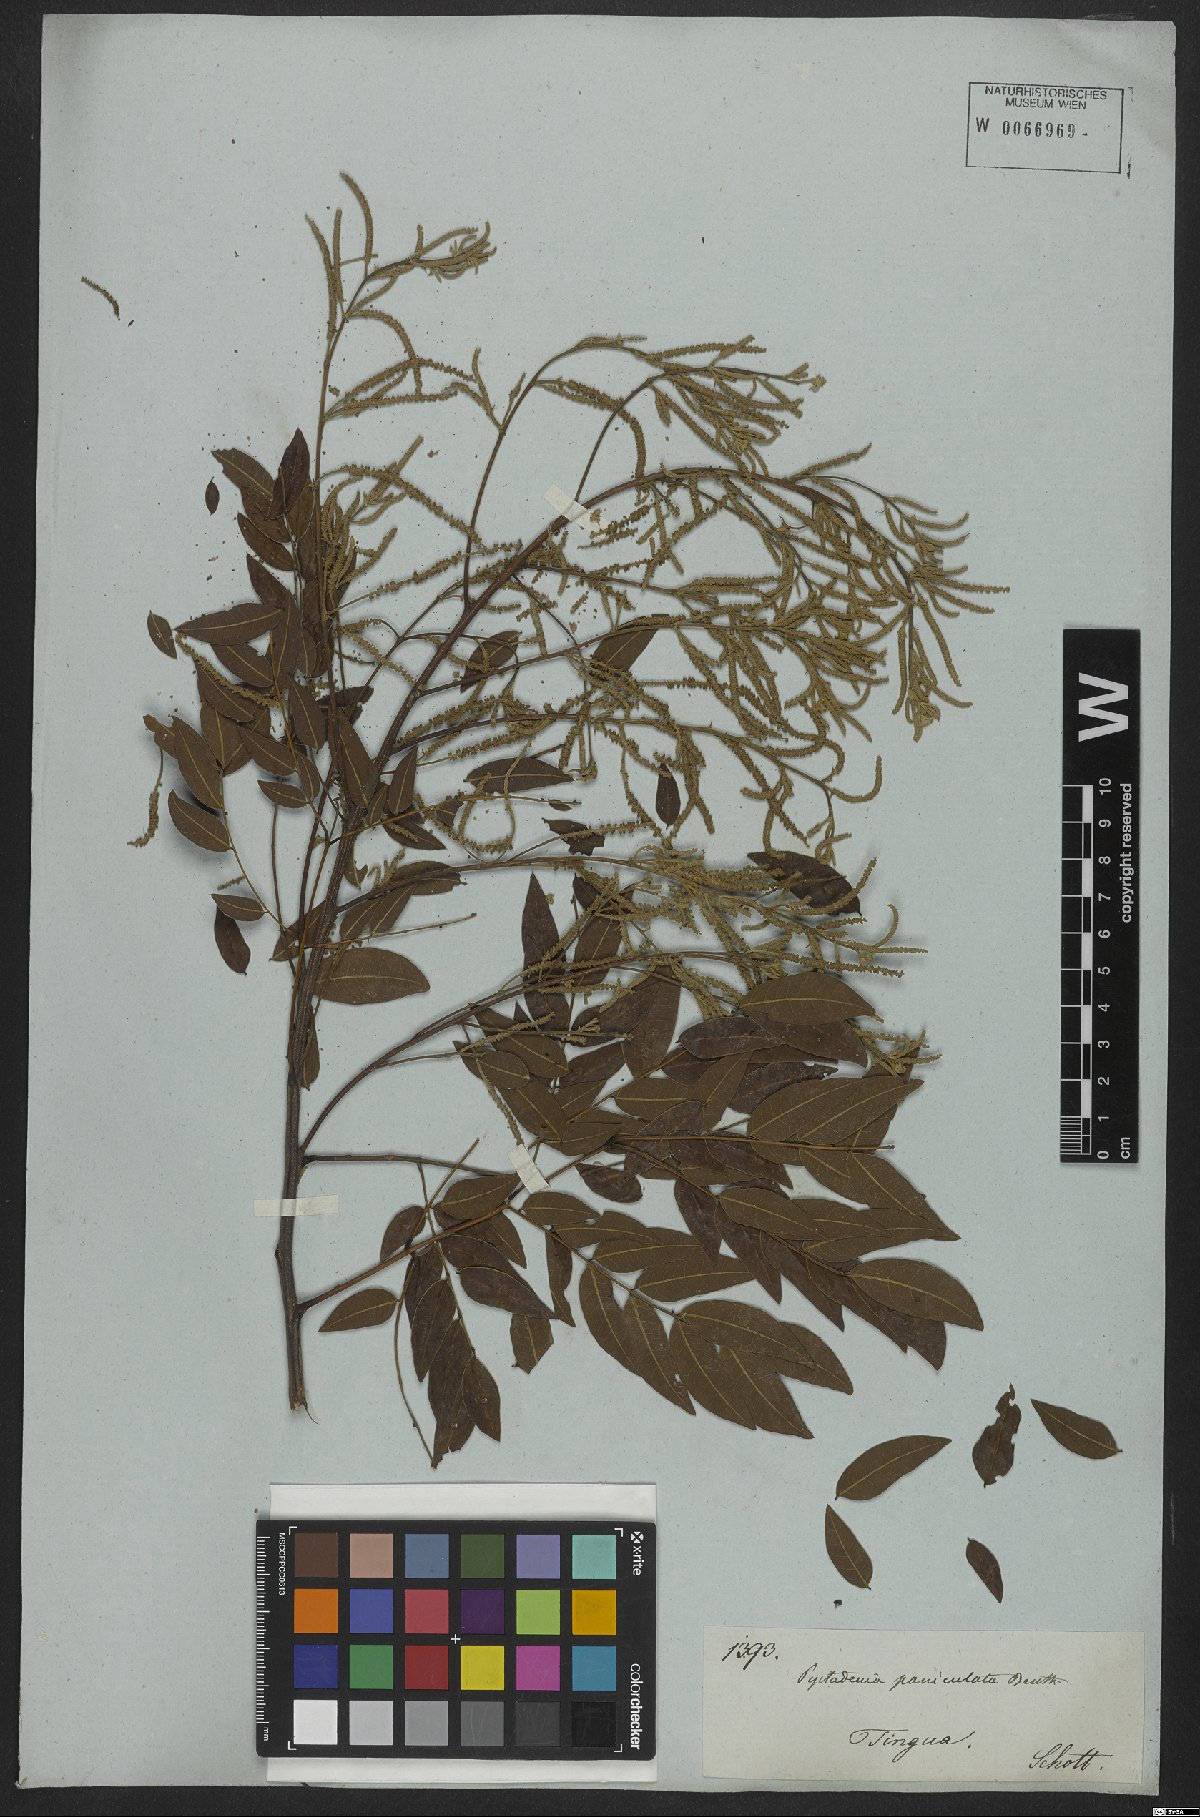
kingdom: Plantae
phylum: Tracheophyta
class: Magnoliopsida
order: Fabales
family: Fabaceae
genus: Piptadenia
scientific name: Piptadenia paniculata
